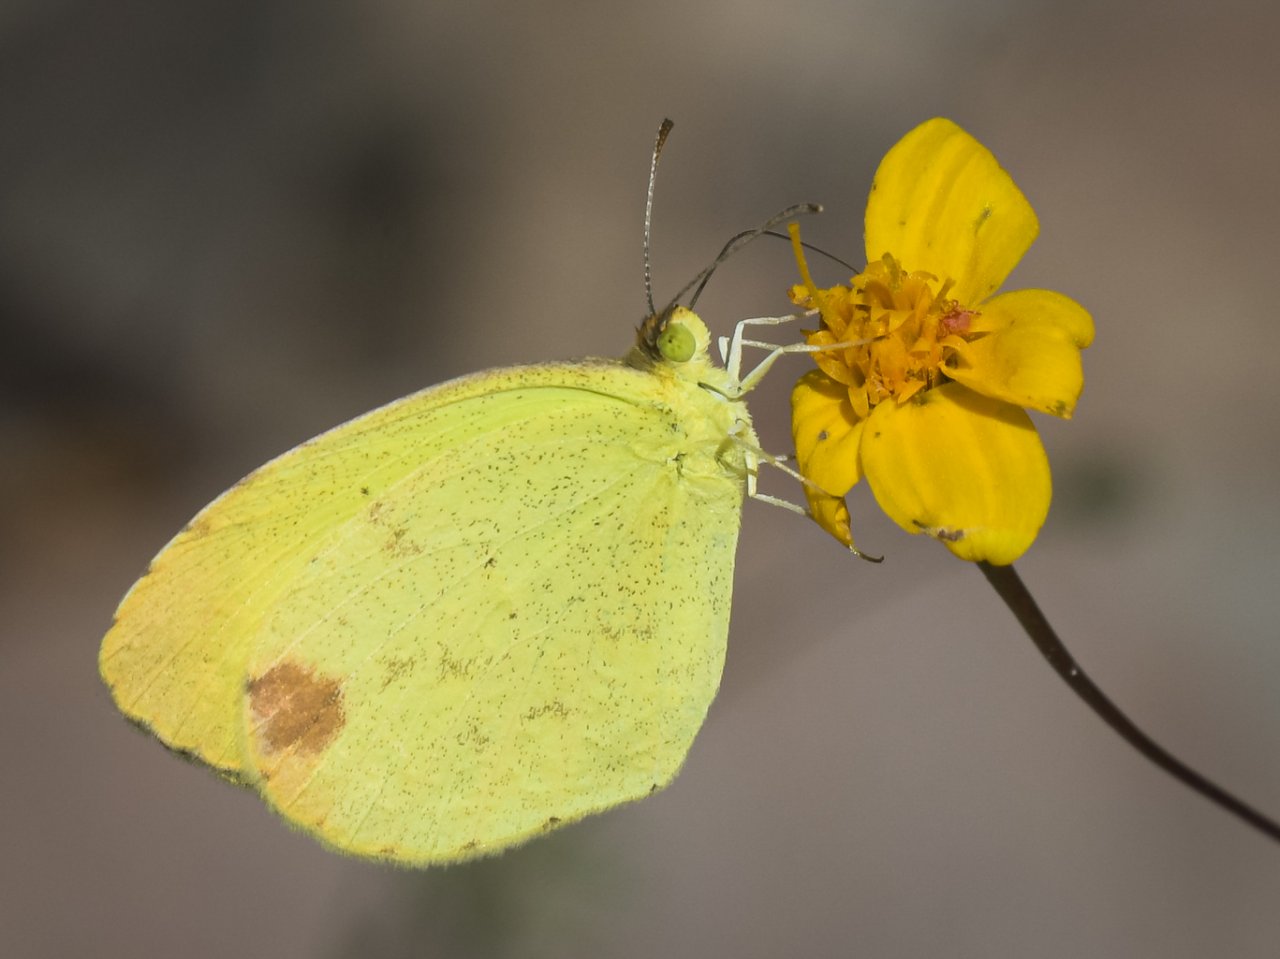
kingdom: Animalia
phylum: Arthropoda
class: Insecta
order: Lepidoptera
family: Pieridae
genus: Pyrisitia
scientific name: Pyrisitia nise
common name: Mimosa Yellow
